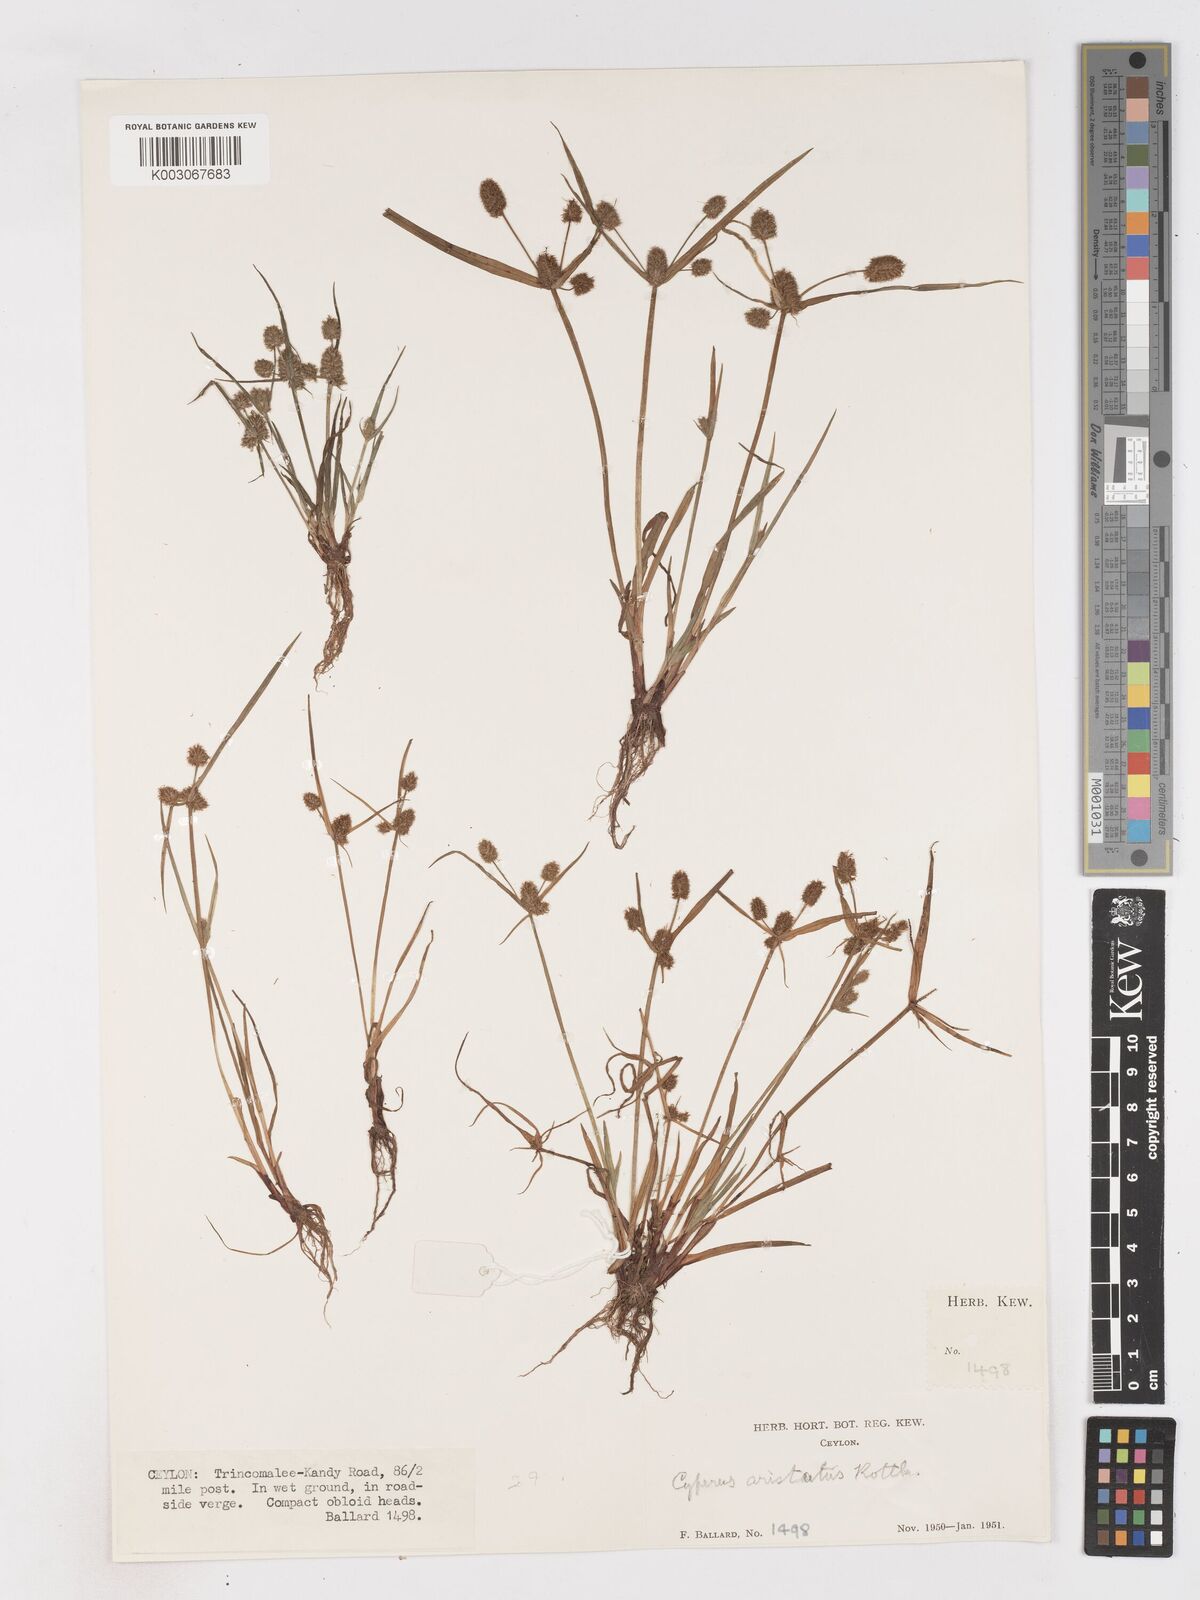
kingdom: Plantae
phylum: Tracheophyta
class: Liliopsida
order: Poales
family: Cyperaceae
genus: Cyperus
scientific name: Cyperus squarrosus
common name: Awned cyperus
